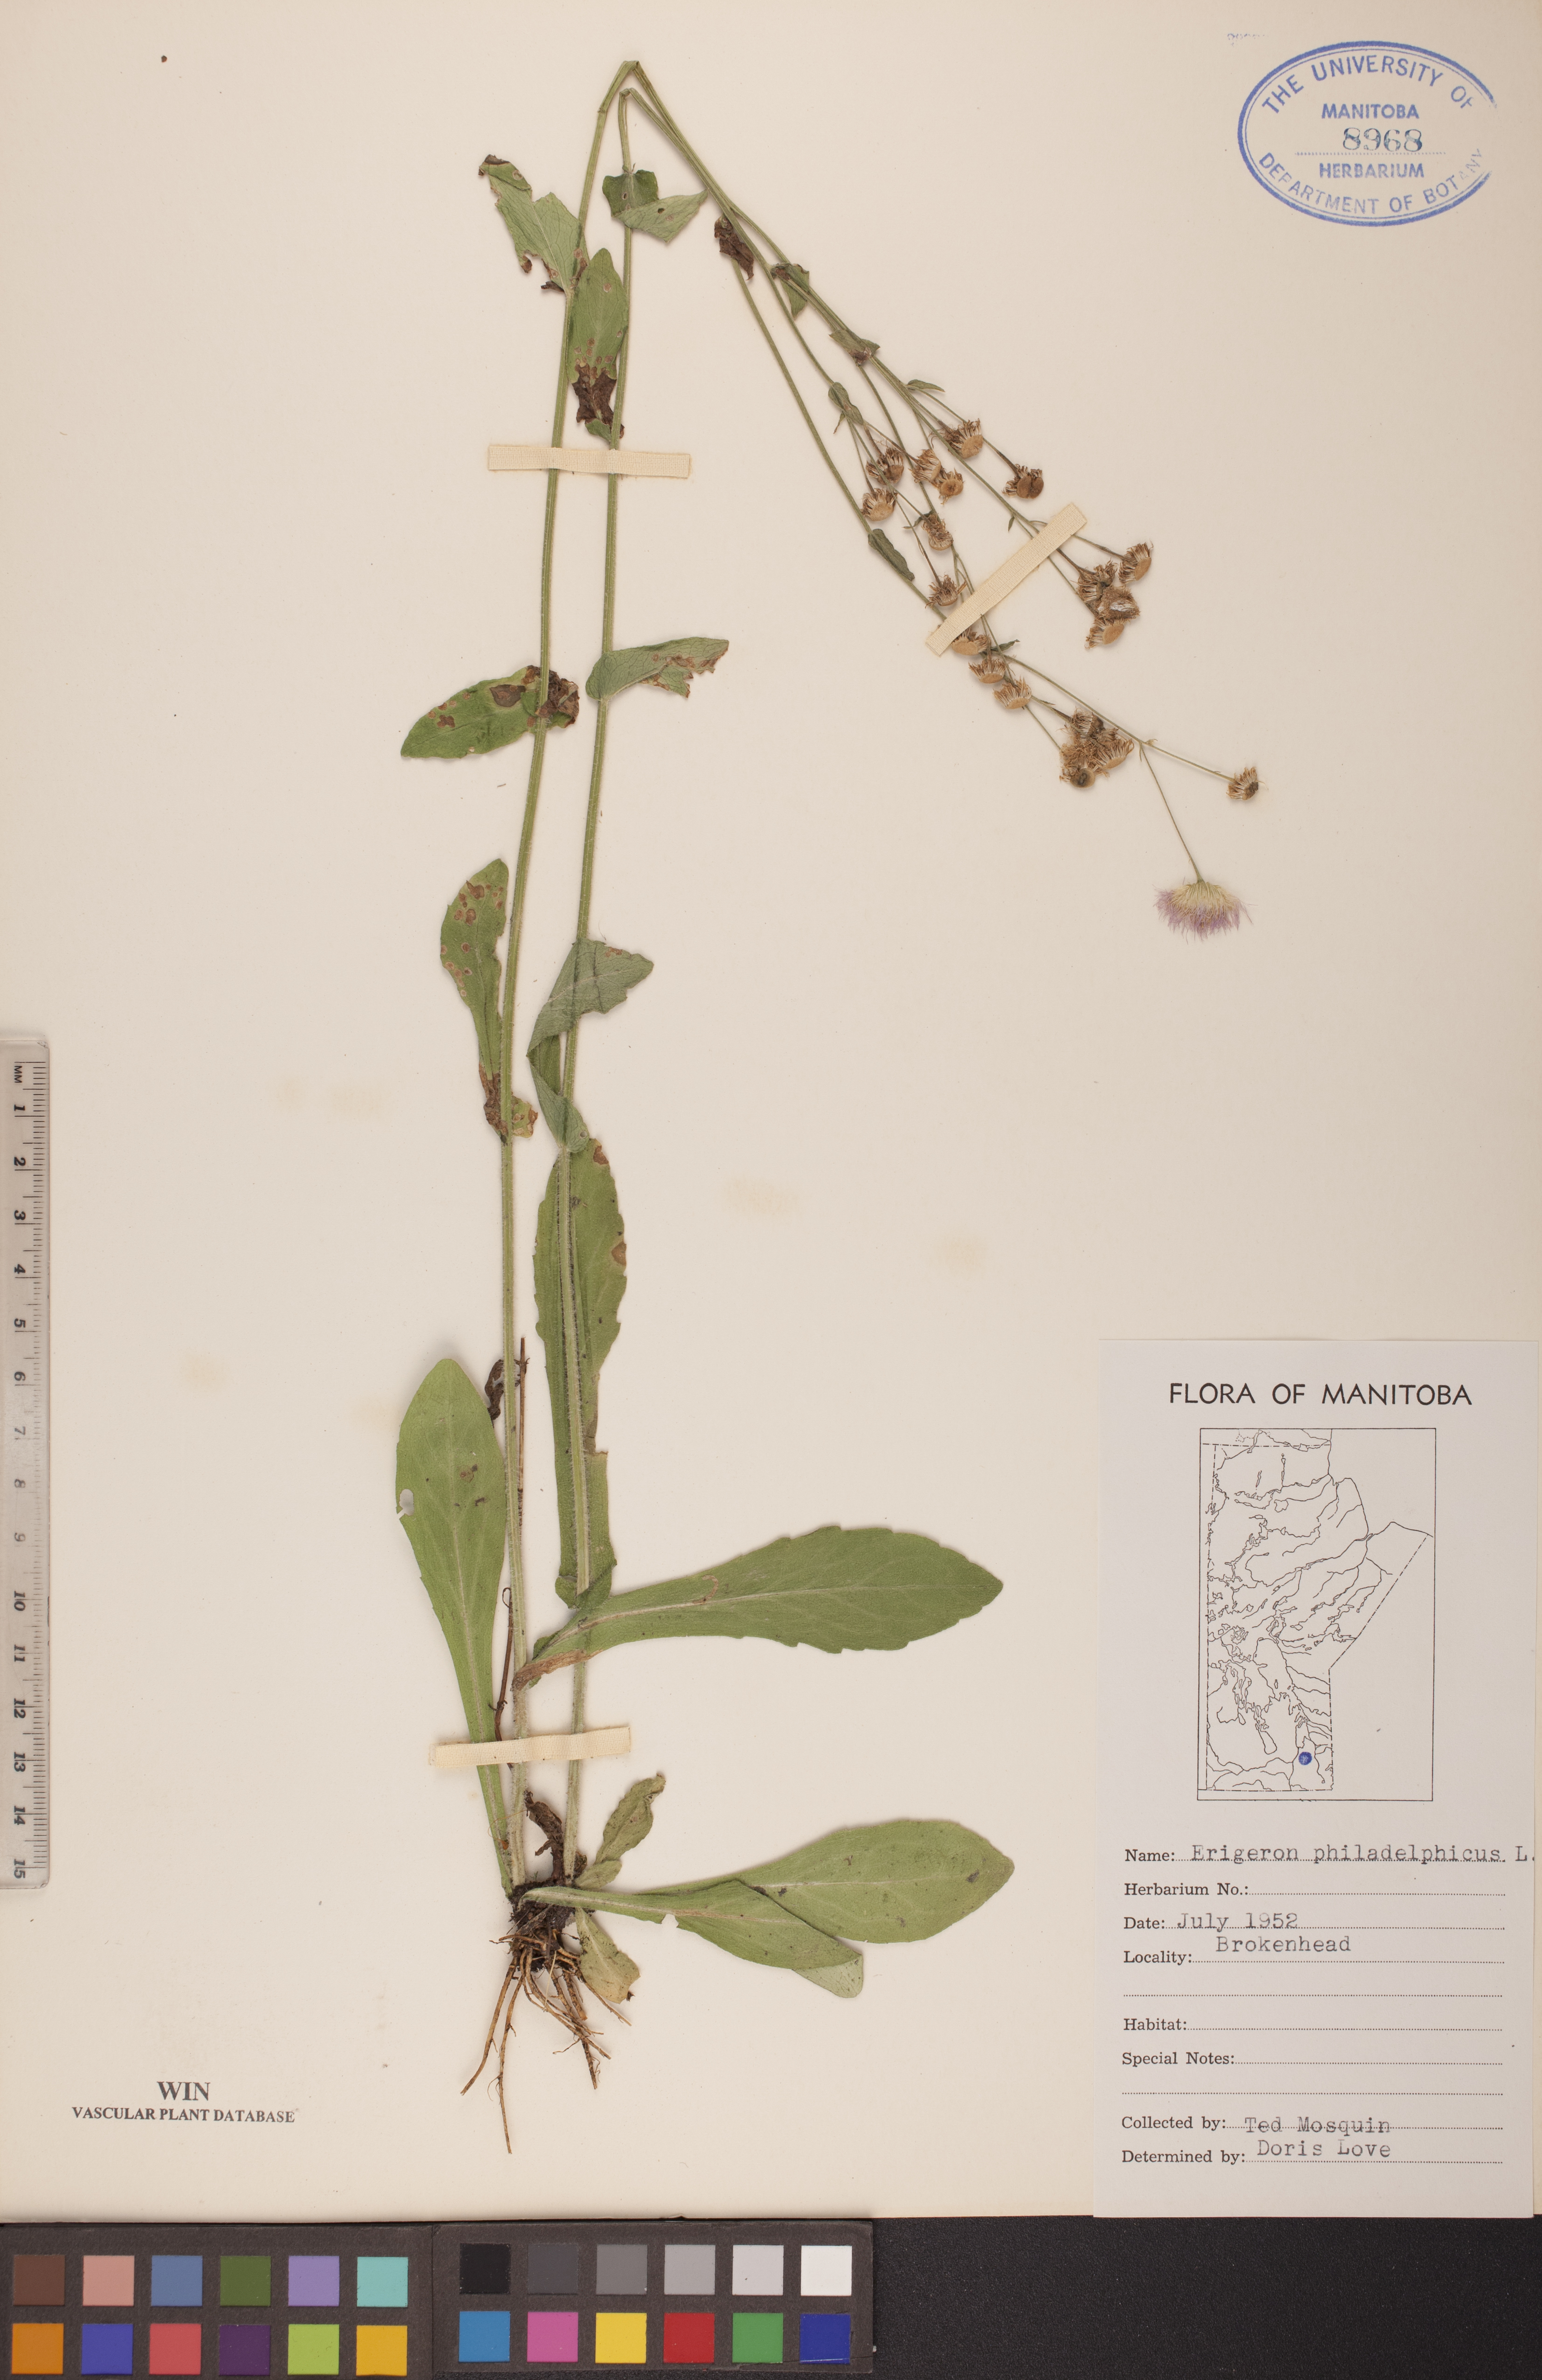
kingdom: Plantae
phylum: Tracheophyta
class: Magnoliopsida
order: Asterales
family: Asteraceae
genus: Erigeron
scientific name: Erigeron philadelphicus
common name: Robin's-plantain
